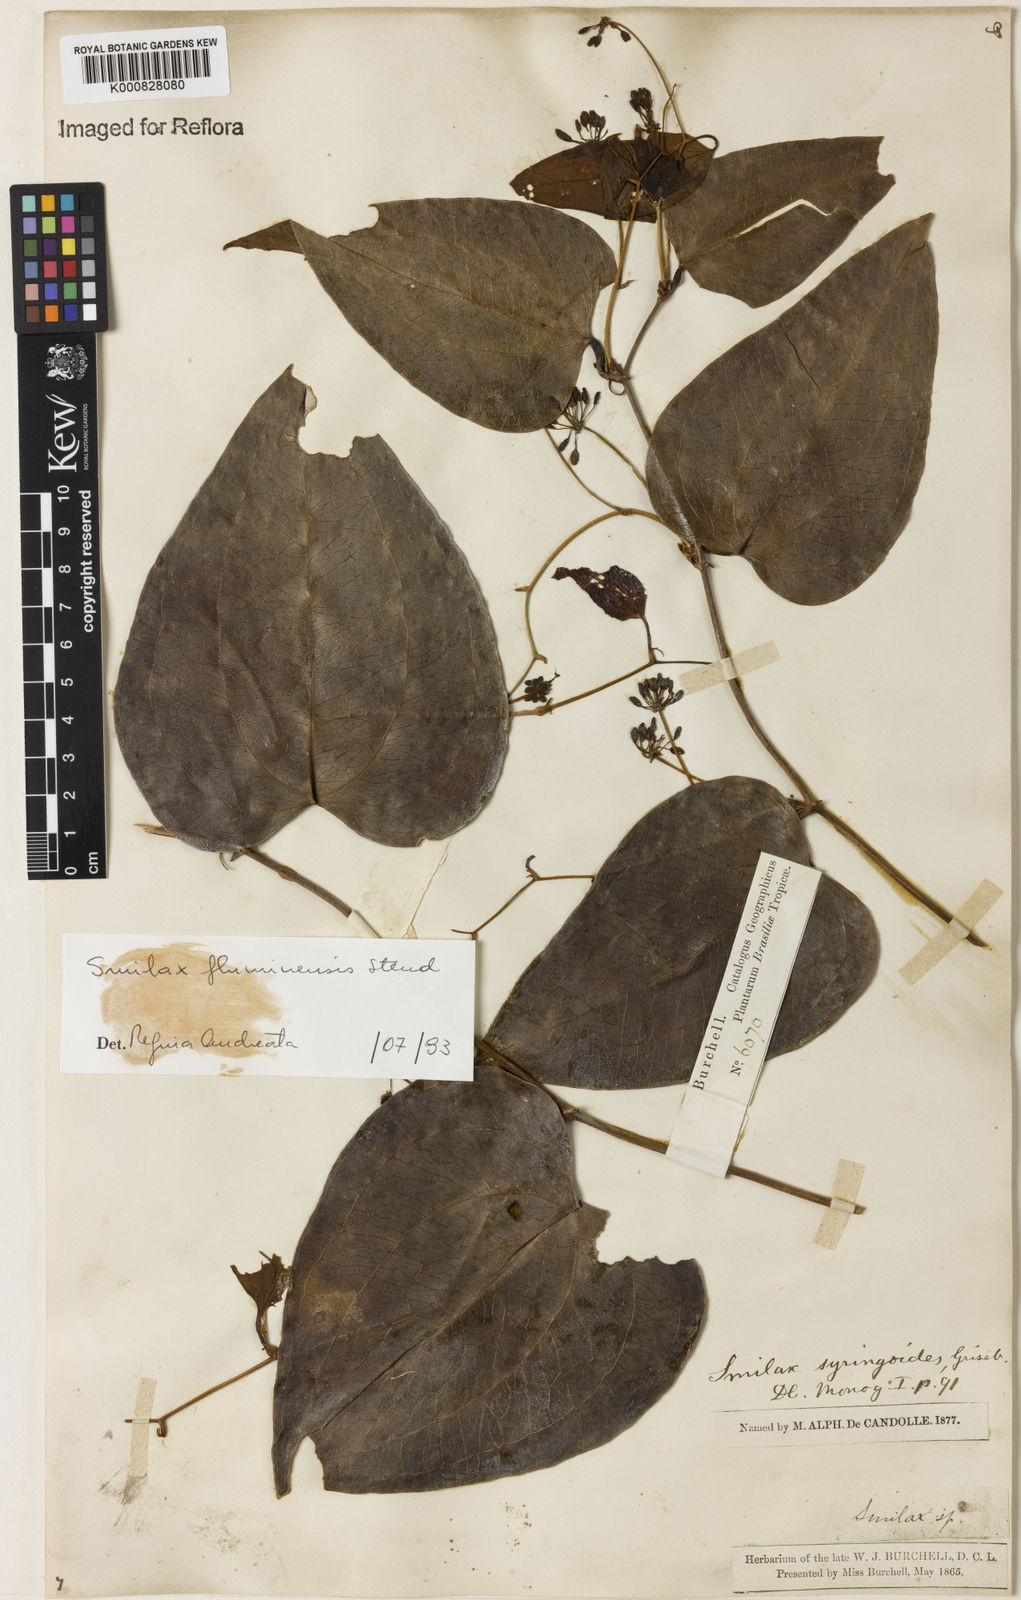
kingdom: Plantae
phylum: Tracheophyta
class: Liliopsida
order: Liliales
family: Smilacaceae
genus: Smilax
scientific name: Smilax fluminensis
